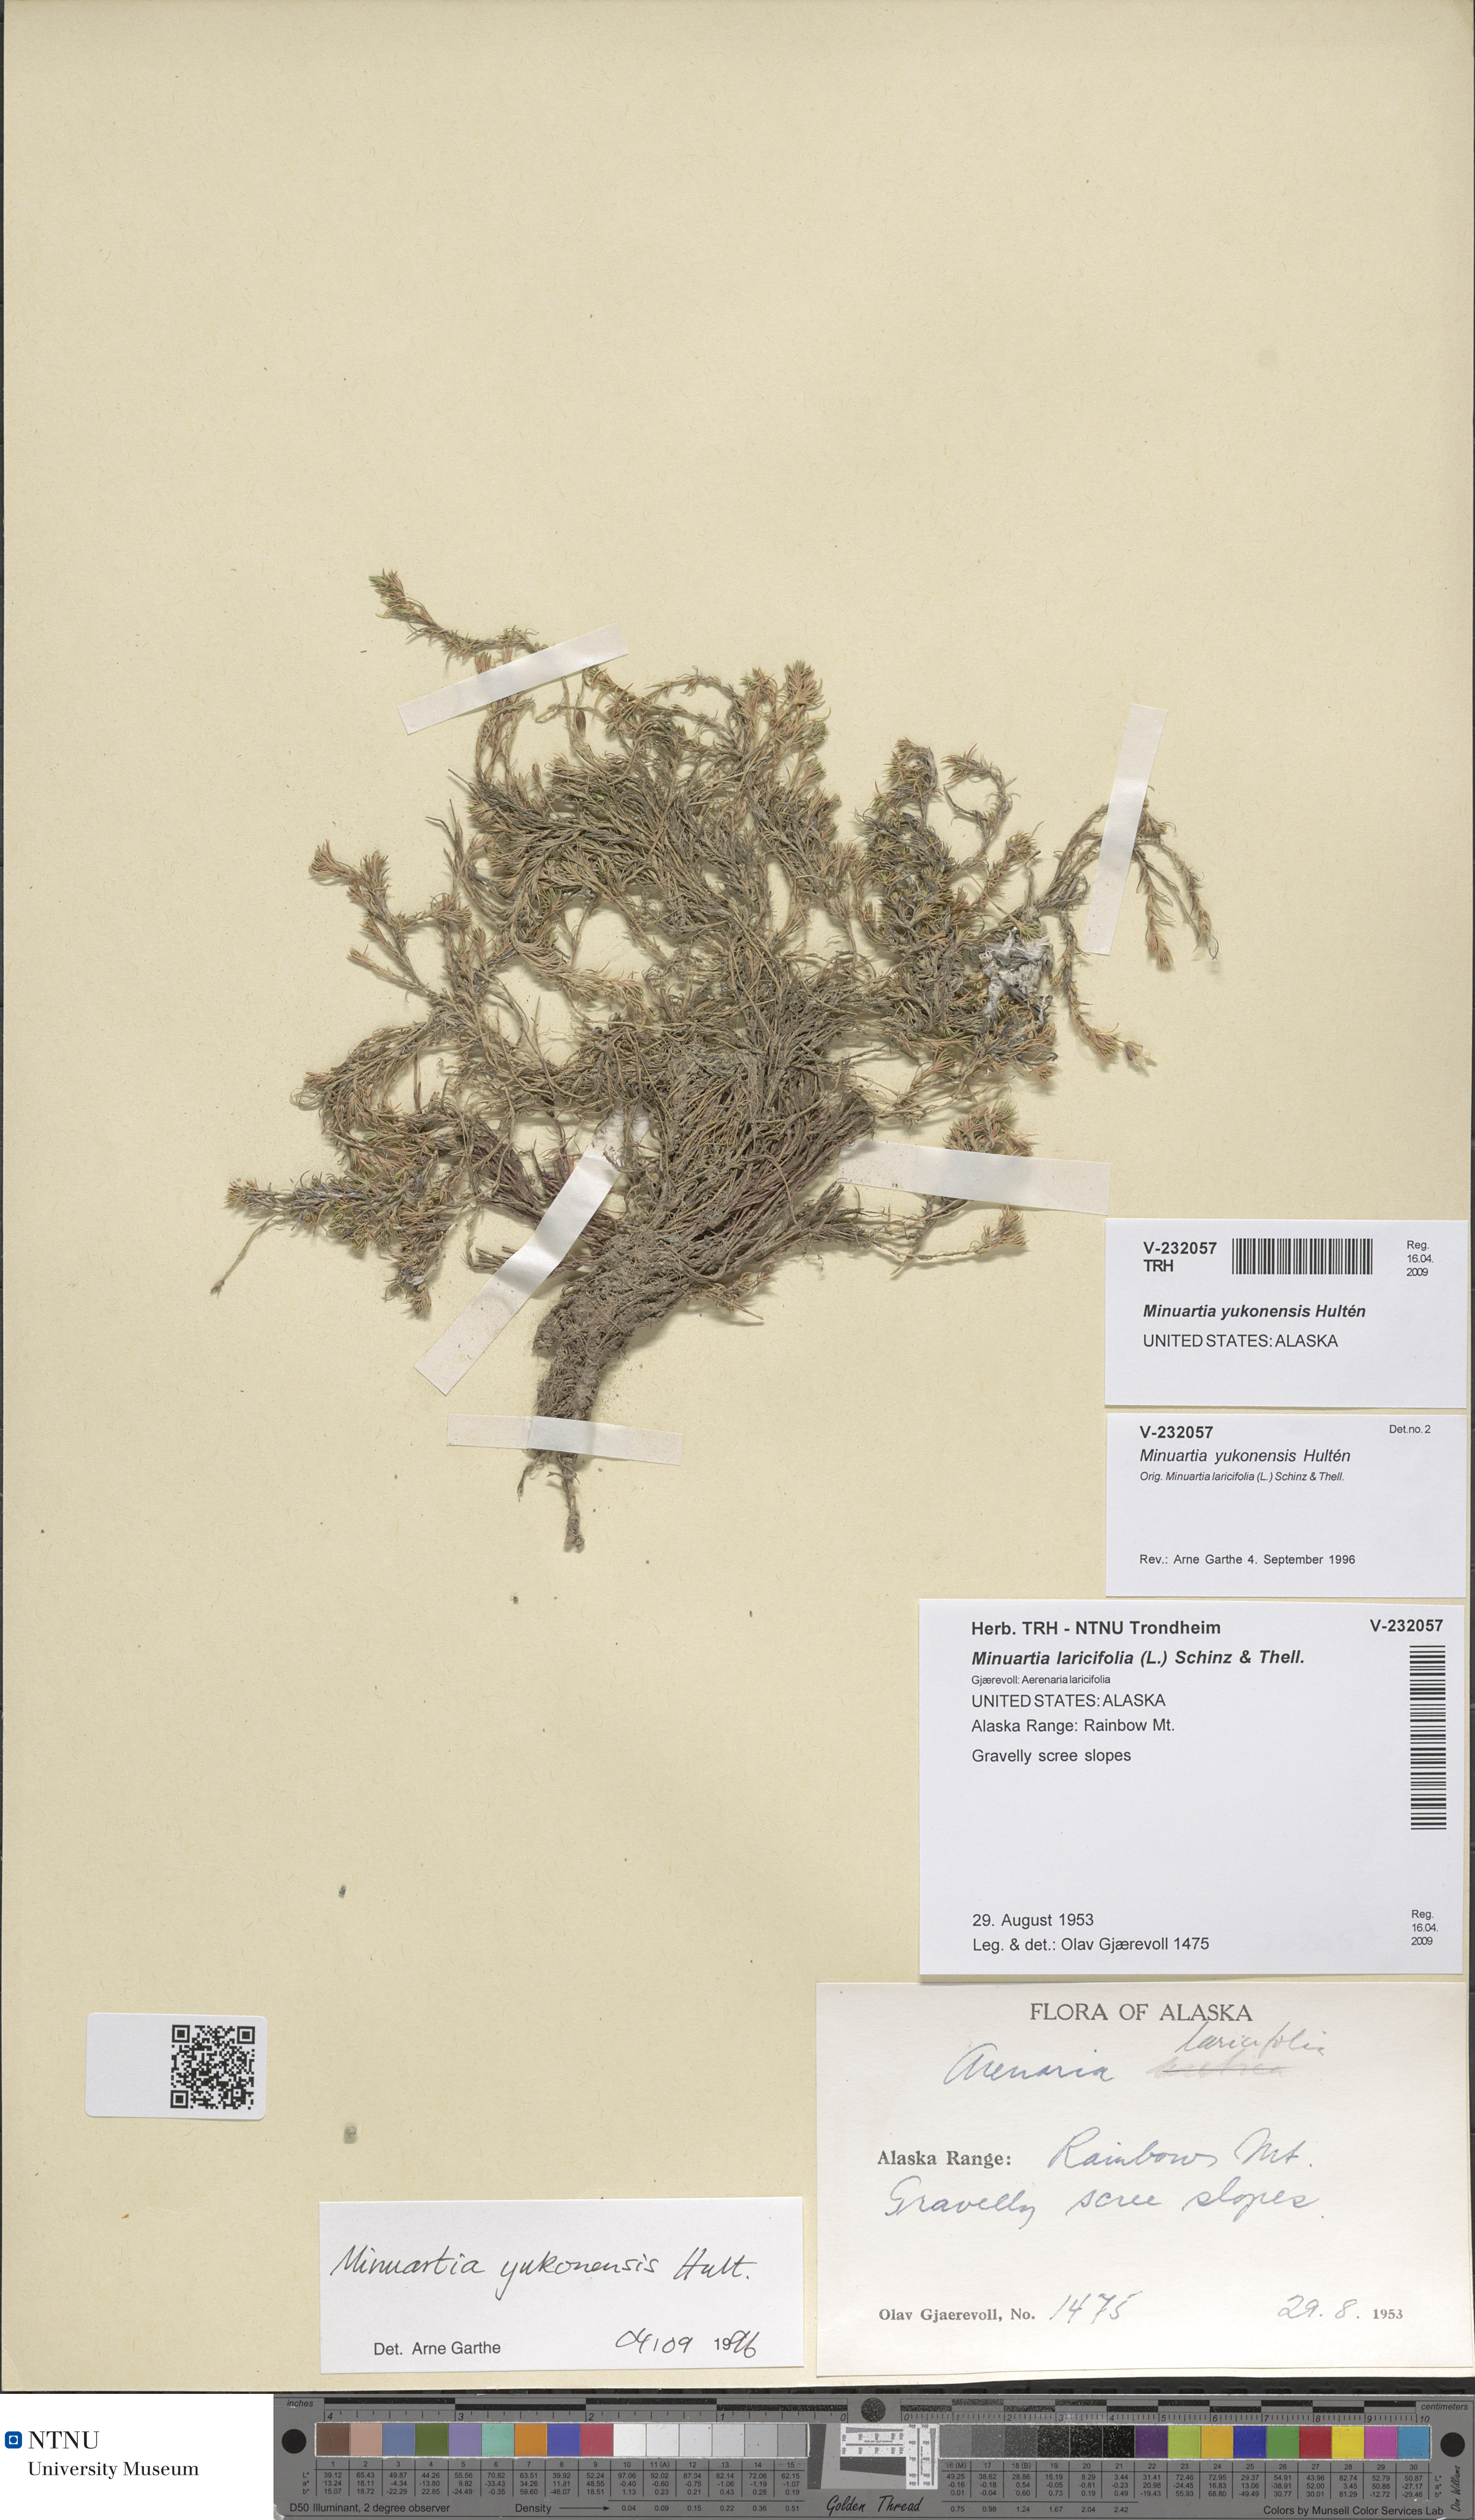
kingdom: Plantae
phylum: Tracheophyta
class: Magnoliopsida
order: Caryophyllales
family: Caryophyllaceae
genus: Cherleria
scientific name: Cherleria yukonensis
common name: Yukon stitchwort
